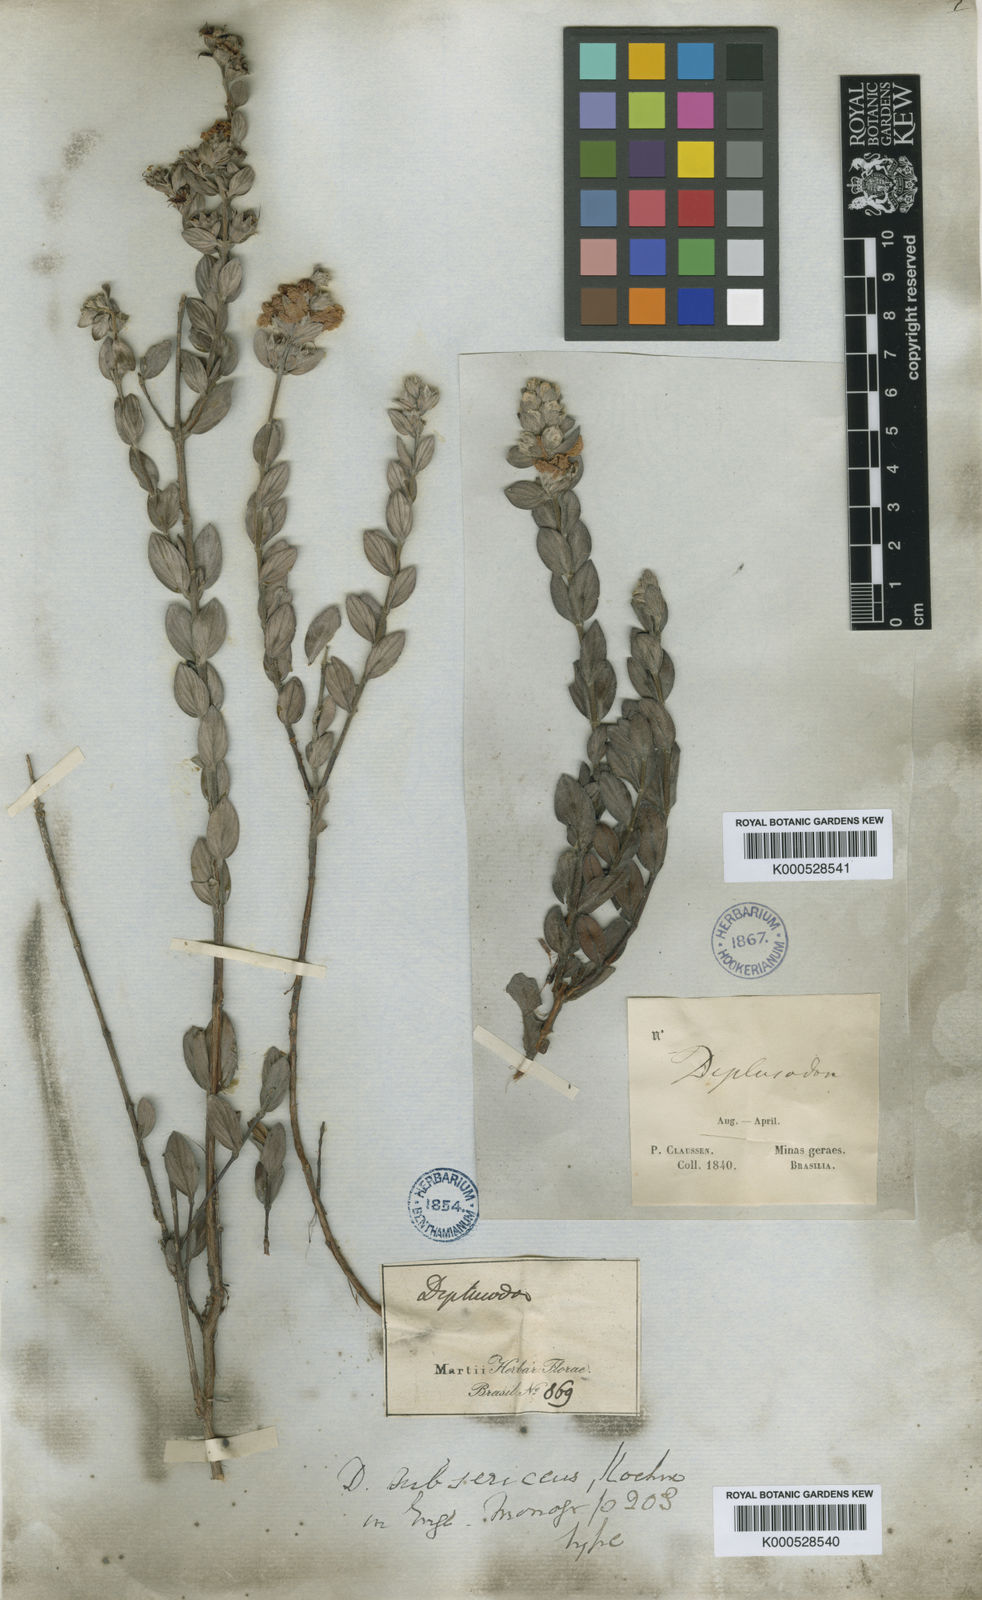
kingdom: Plantae
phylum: Tracheophyta
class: Magnoliopsida
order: Myrtales
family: Lythraceae
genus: Diplusodon
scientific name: Diplusodon
